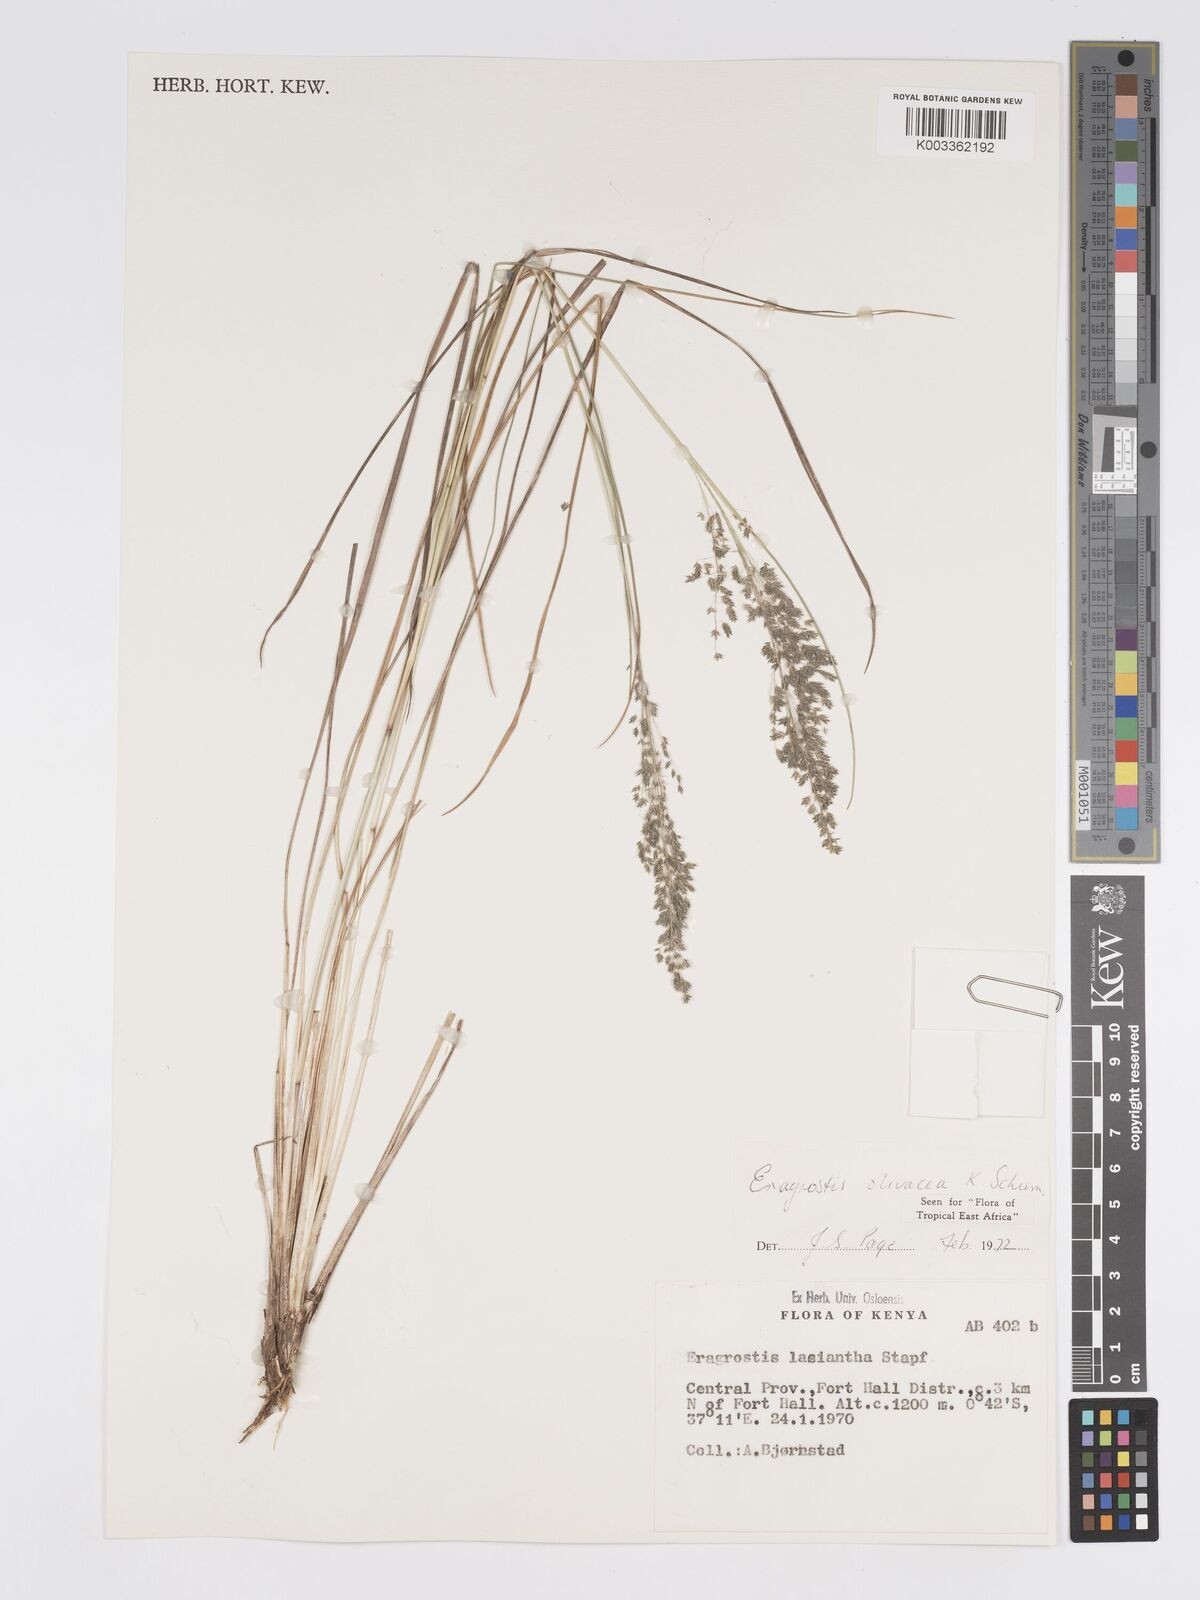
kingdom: Plantae
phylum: Tracheophyta
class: Liliopsida
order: Poales
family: Poaceae
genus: Eragrostis
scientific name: Eragrostis olivacea
